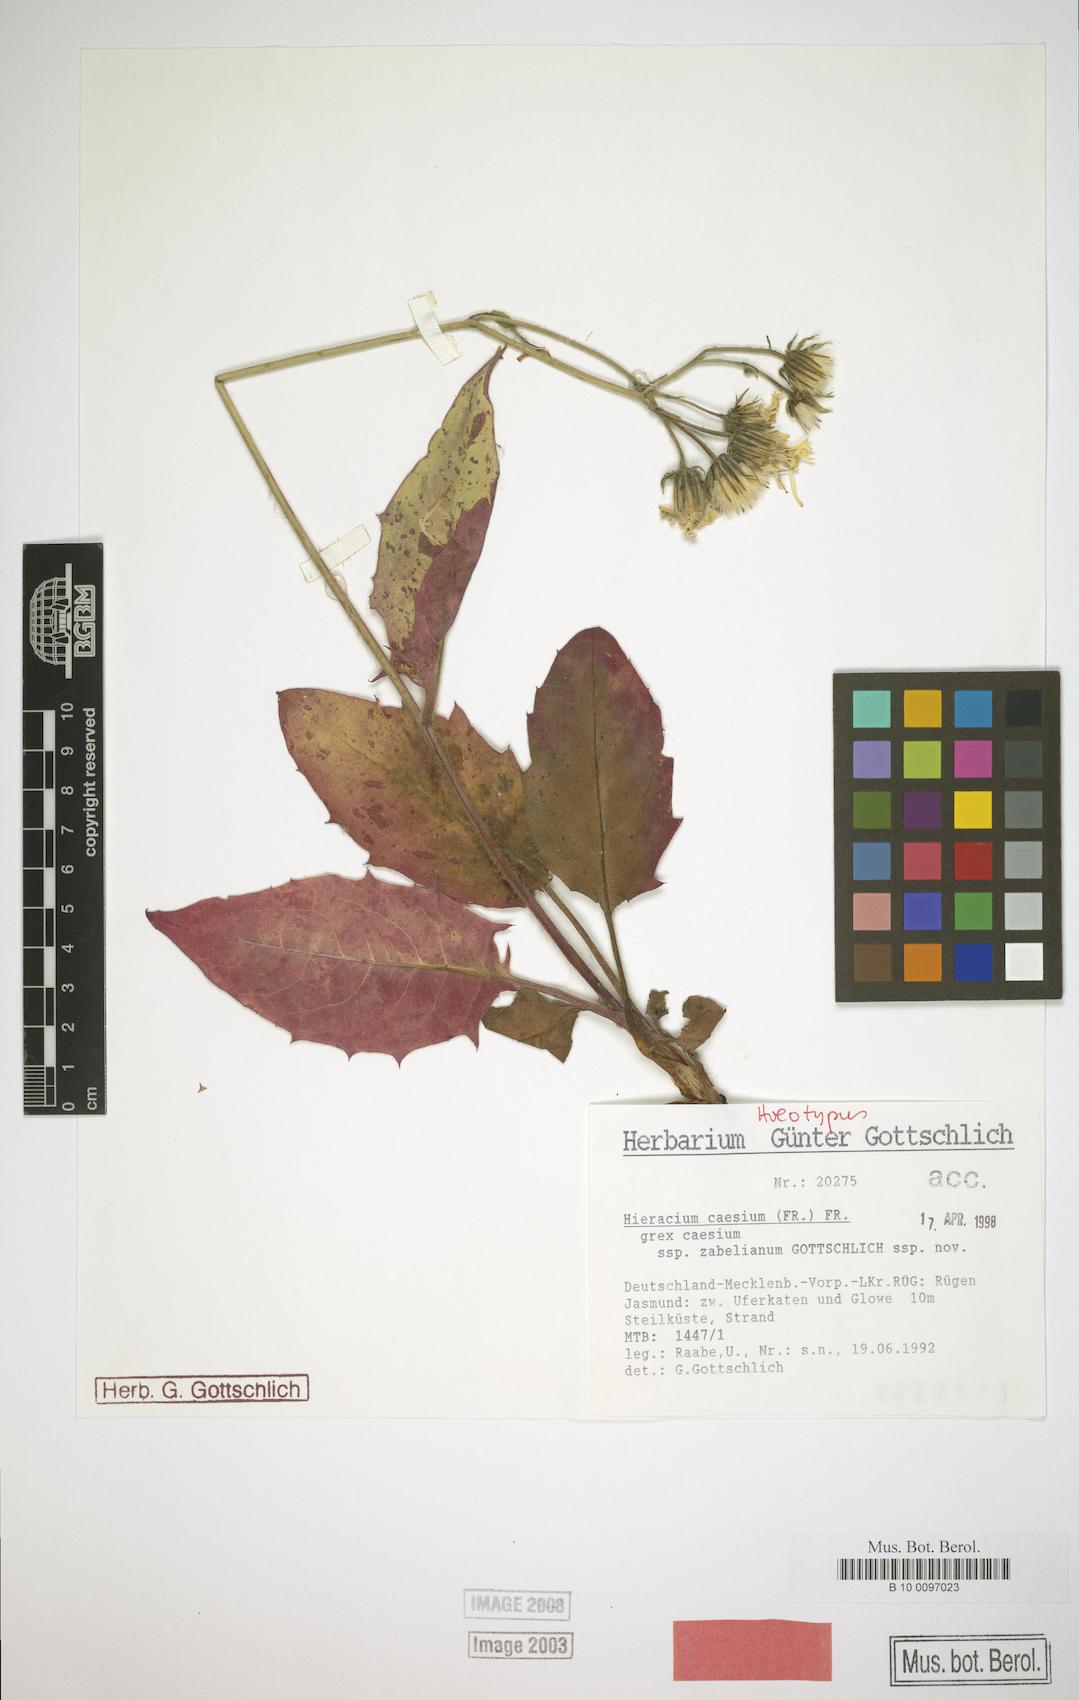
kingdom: Plantae
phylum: Tracheophyta
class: Magnoliopsida
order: Asterales
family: Asteraceae
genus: Hieracium
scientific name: Hieracium caesium
